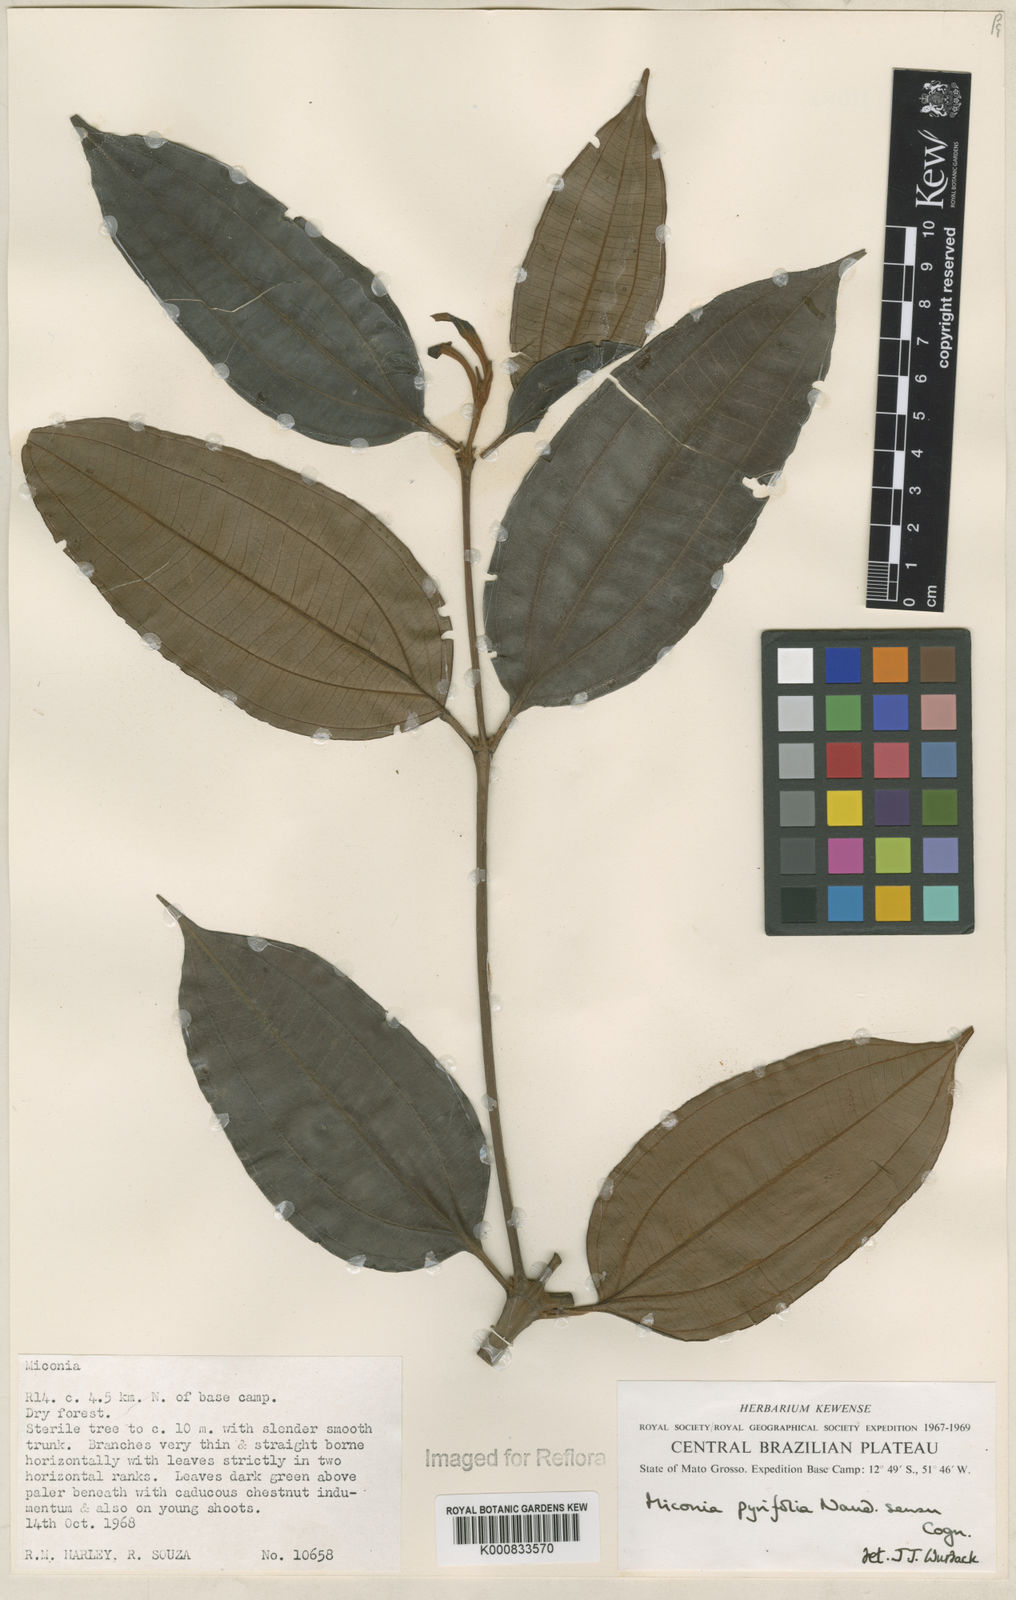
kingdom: Plantae
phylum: Tracheophyta
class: Magnoliopsida
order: Myrtales
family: Melastomataceae
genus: Miconia
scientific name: Miconia pyrifolia
